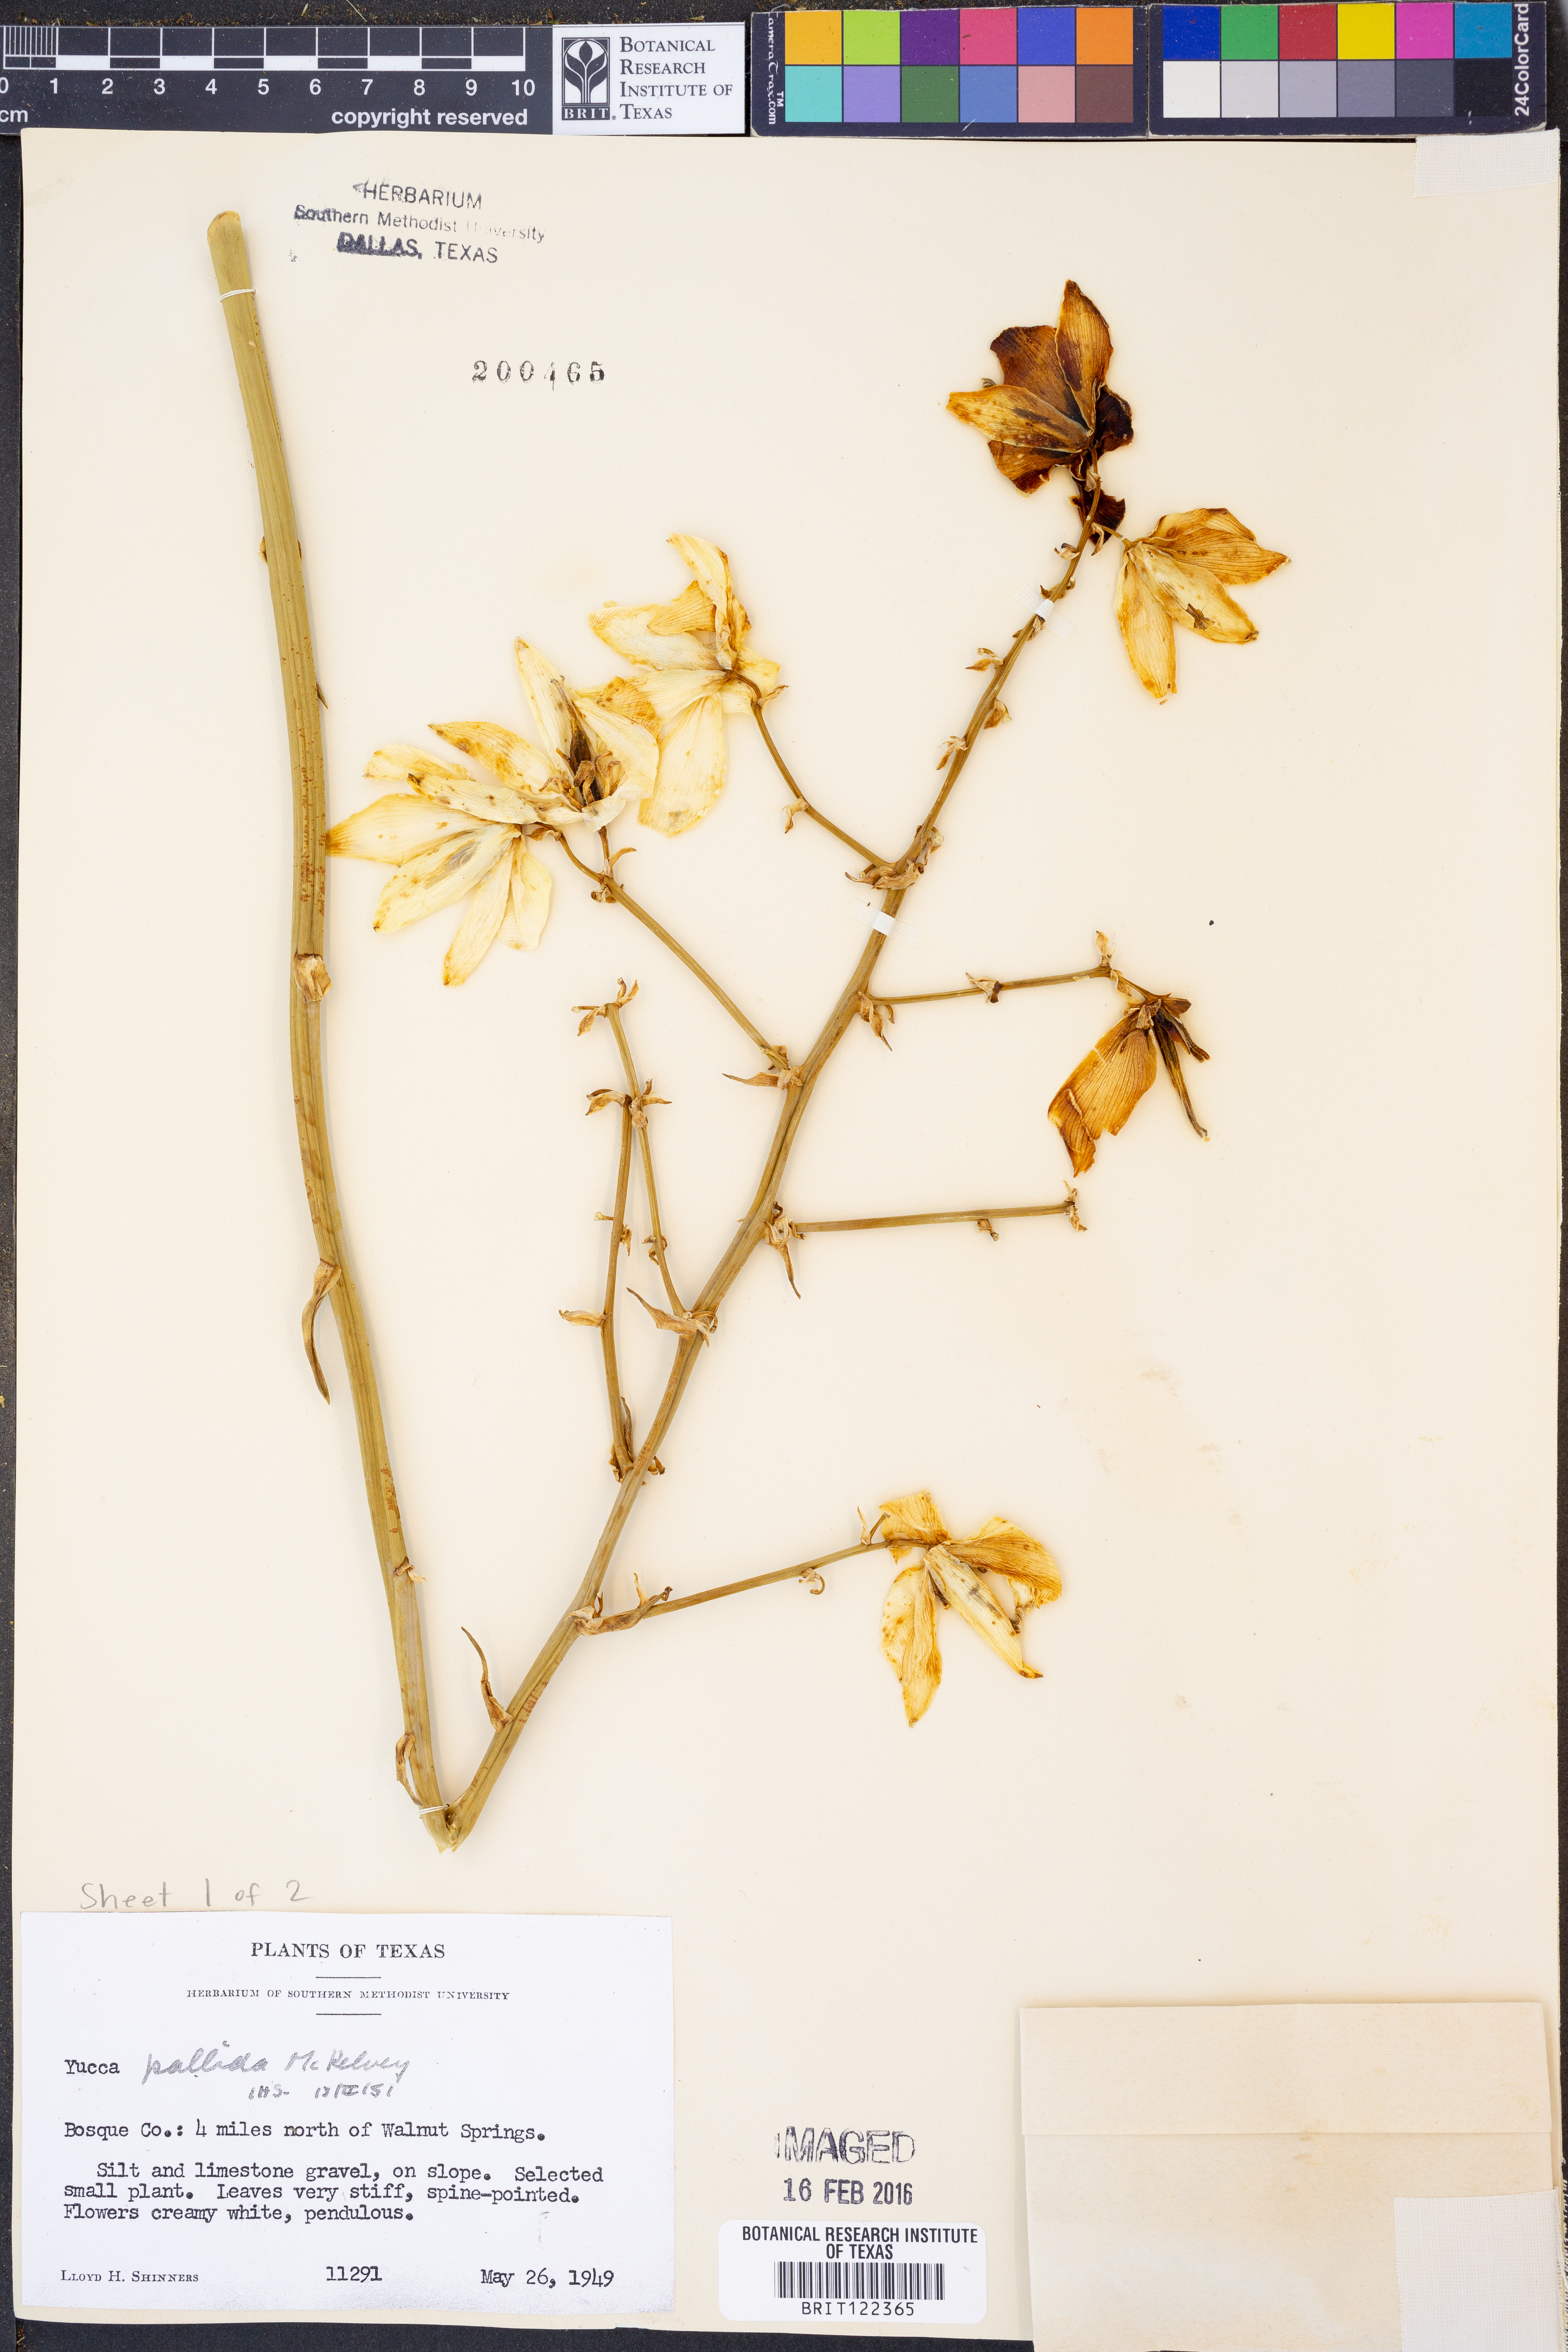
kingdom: Plantae
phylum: Tracheophyta
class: Liliopsida
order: Asparagales
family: Asparagaceae
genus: Yucca
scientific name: Yucca pallida
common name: Pale leaf yucca
